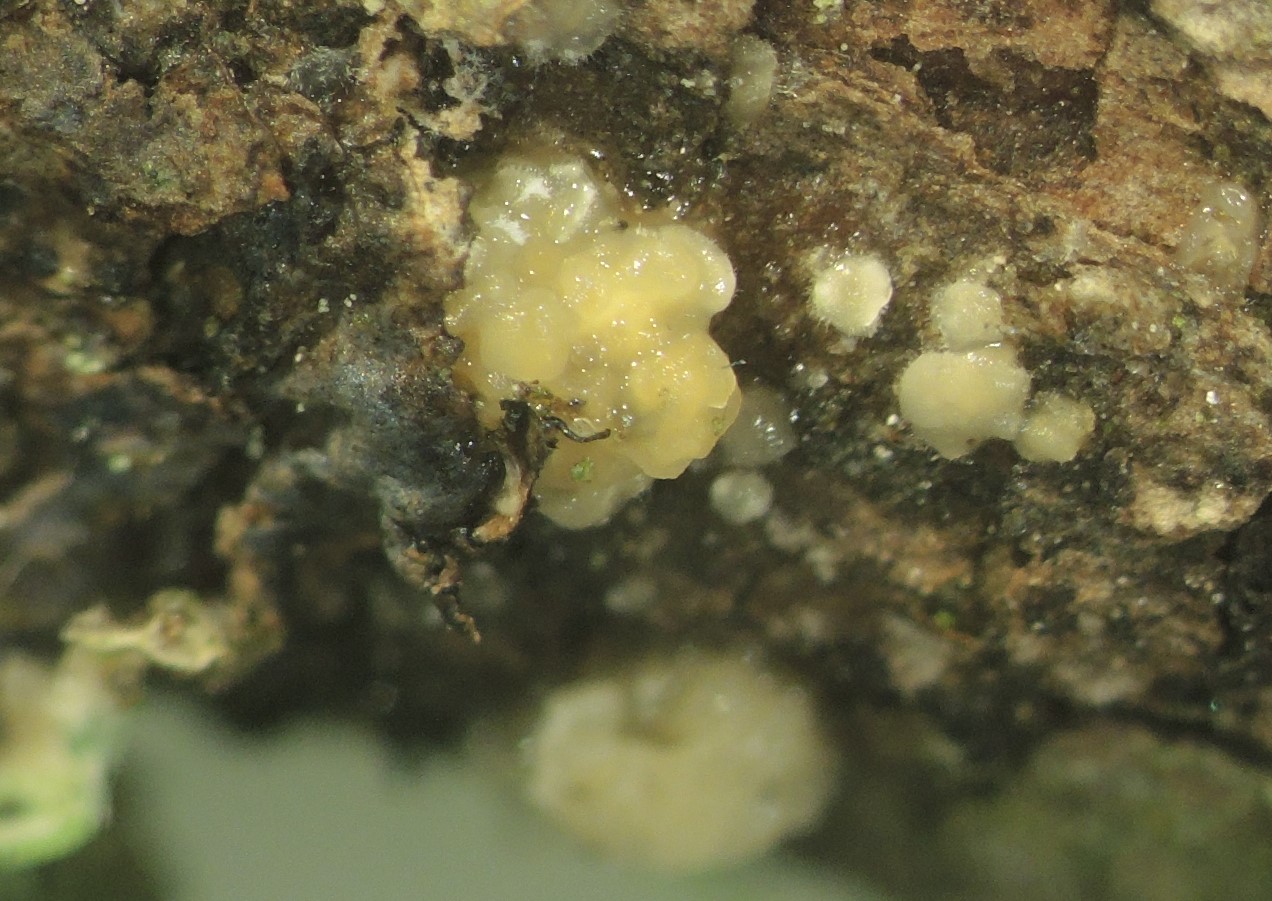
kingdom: Fungi
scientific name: Fungi
